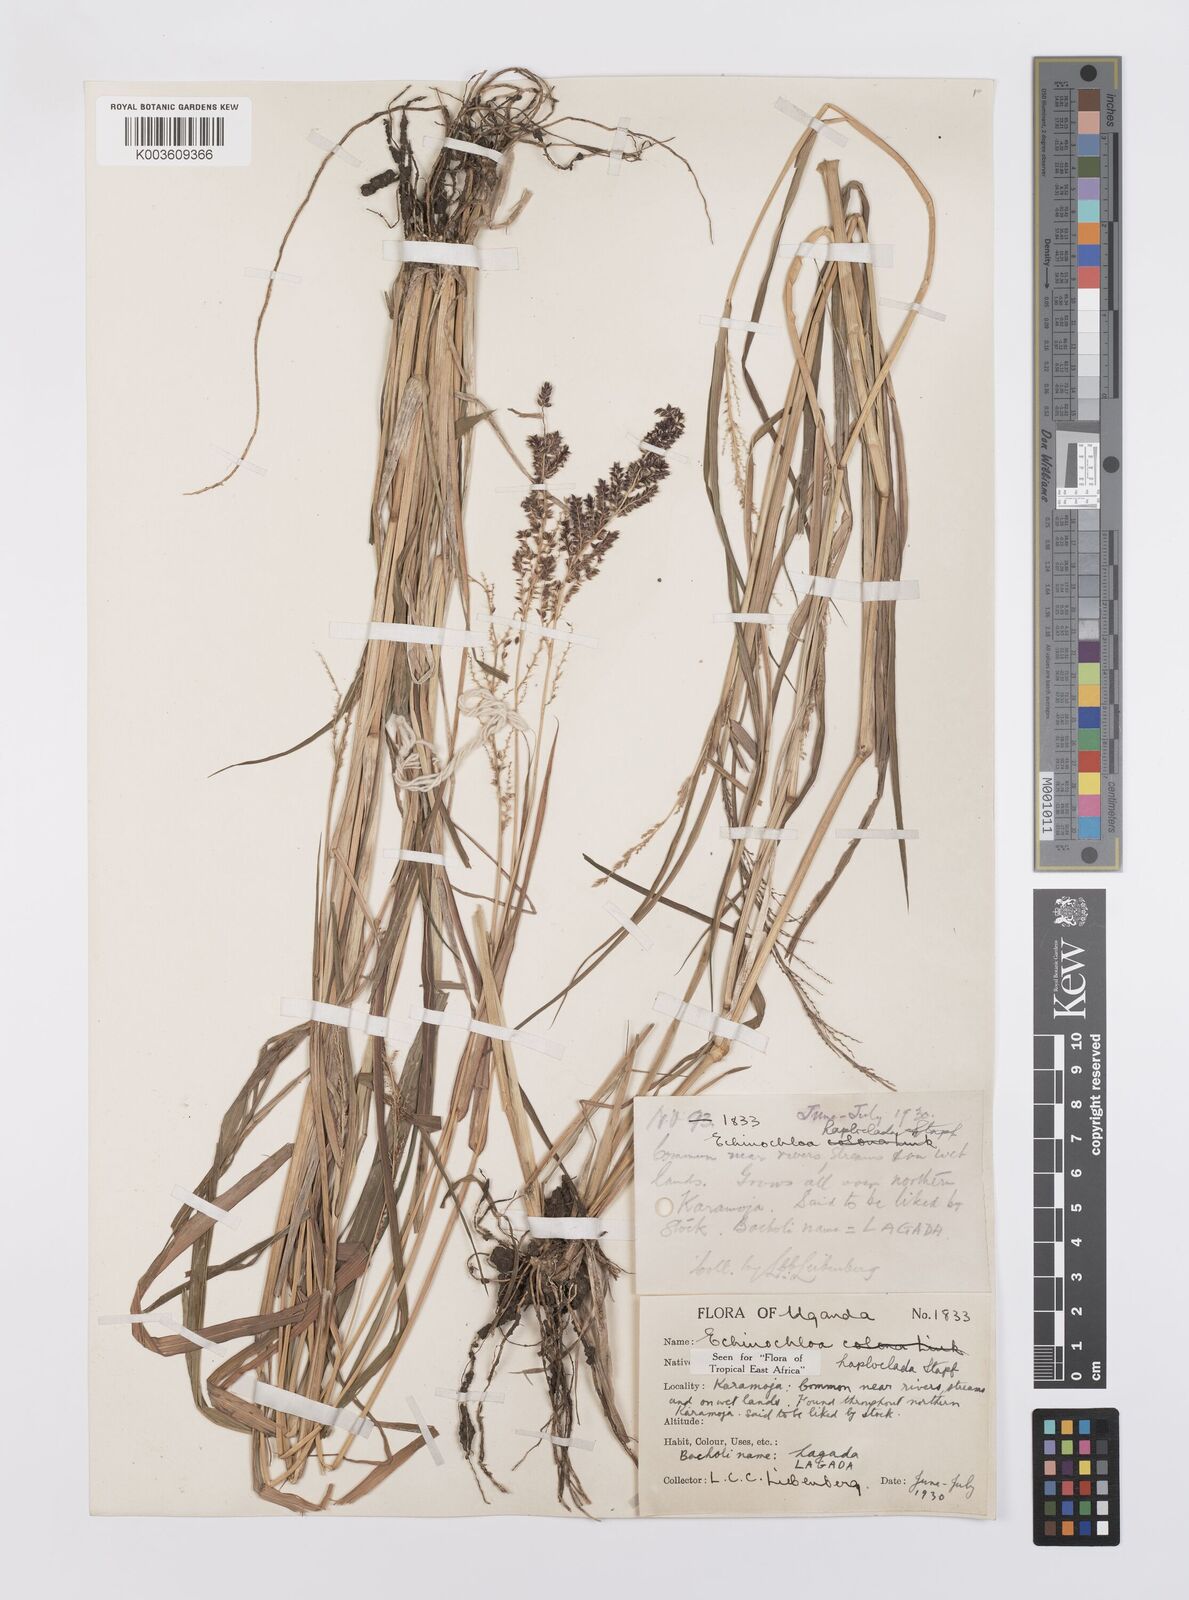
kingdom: Plantae
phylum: Tracheophyta
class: Liliopsida
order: Poales
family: Poaceae
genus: Echinochloa
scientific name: Echinochloa haploclada
